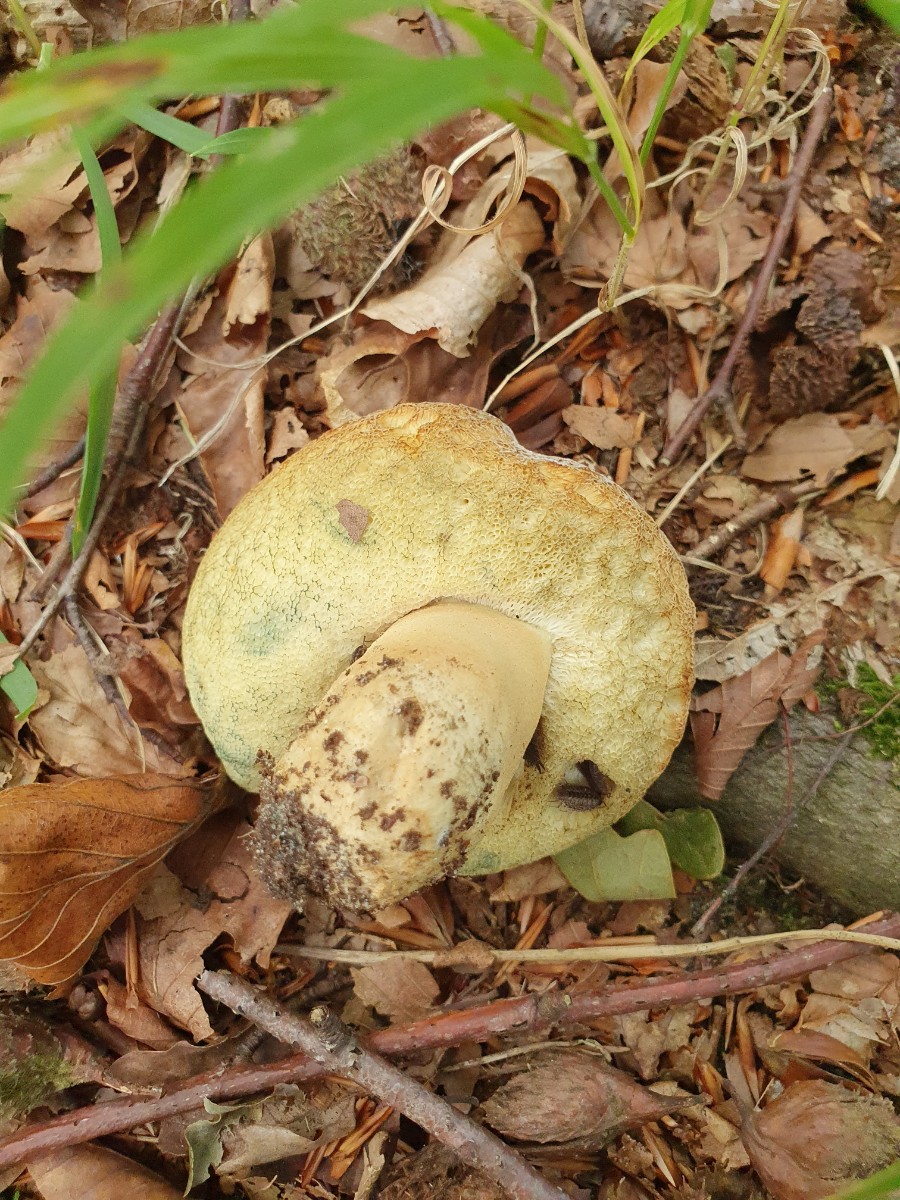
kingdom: Fungi
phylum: Basidiomycota
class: Agaricomycetes
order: Boletales
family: Gyroporaceae
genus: Gyroporus
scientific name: Gyroporus cyanescens
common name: blånende kammerrørhat
